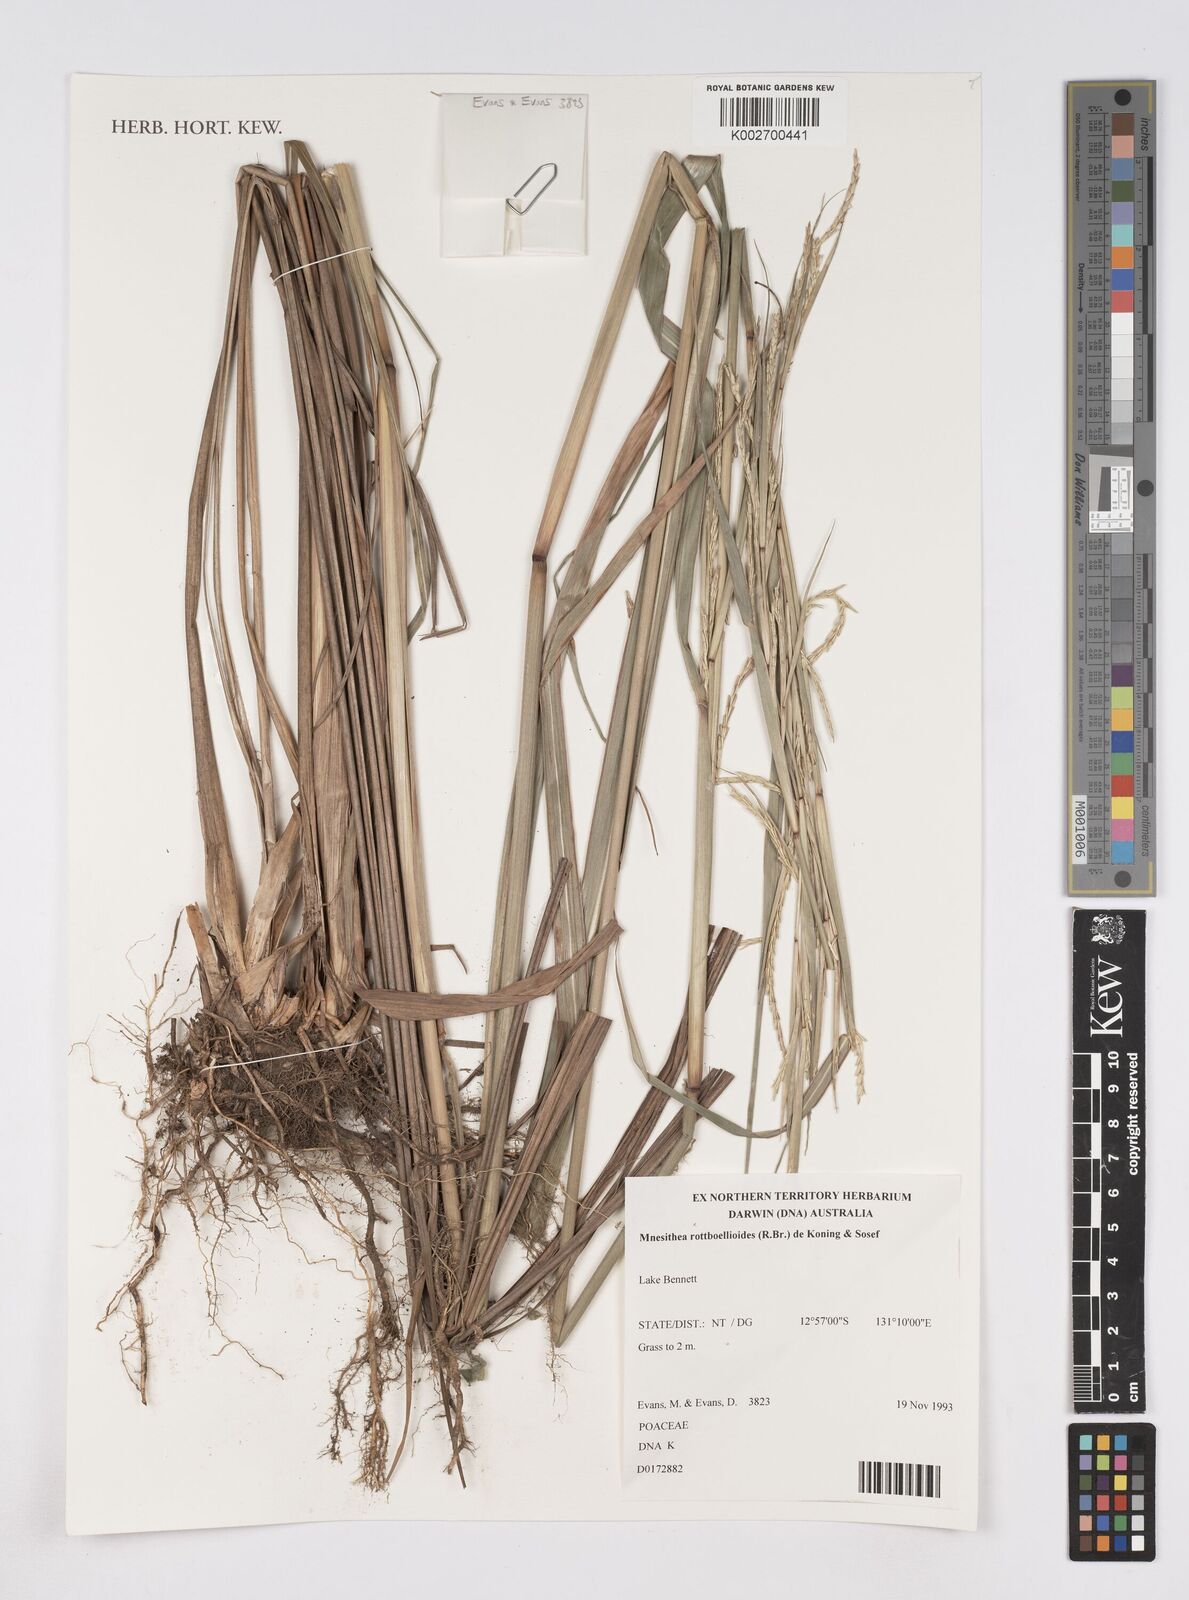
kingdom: Plantae
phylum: Tracheophyta
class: Liliopsida
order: Poales
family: Poaceae
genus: Rottboellia
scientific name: Rottboellia rottboellioides
